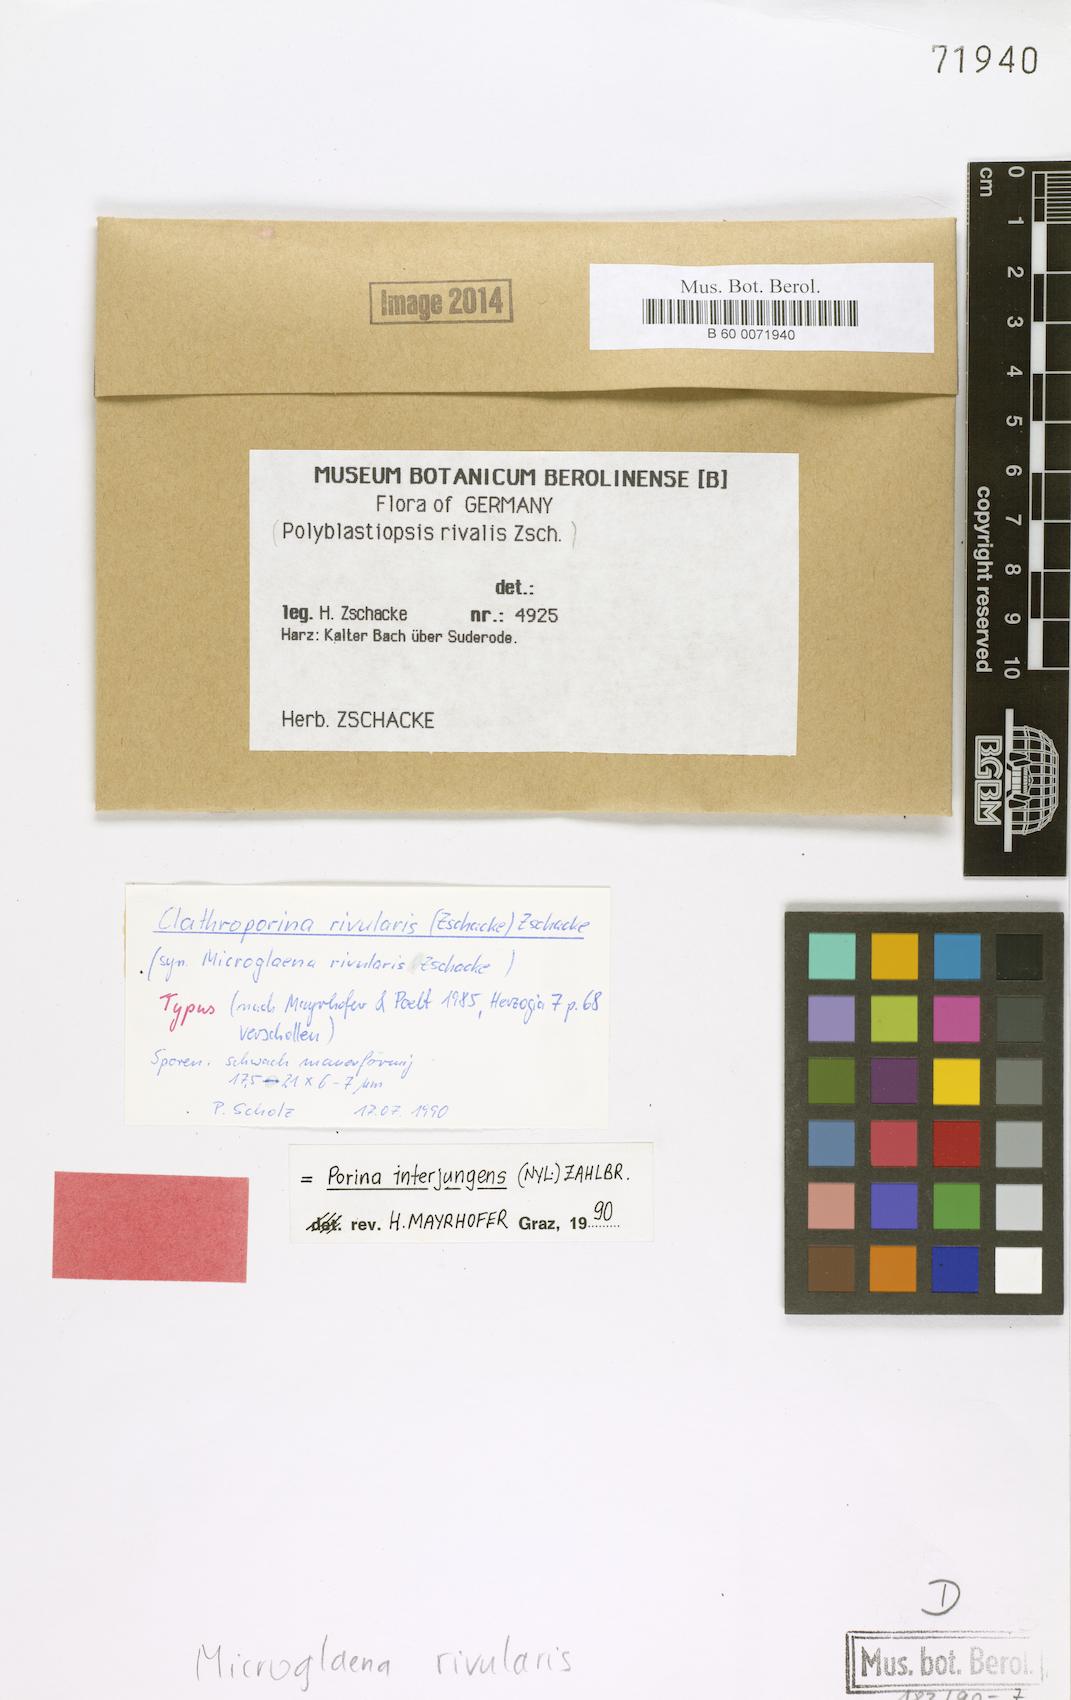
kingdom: Fungi
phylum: Ascomycota
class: Lecanoromycetes
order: Ostropales
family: Porinaceae
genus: Clathroporina
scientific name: Clathroporina rivularis
